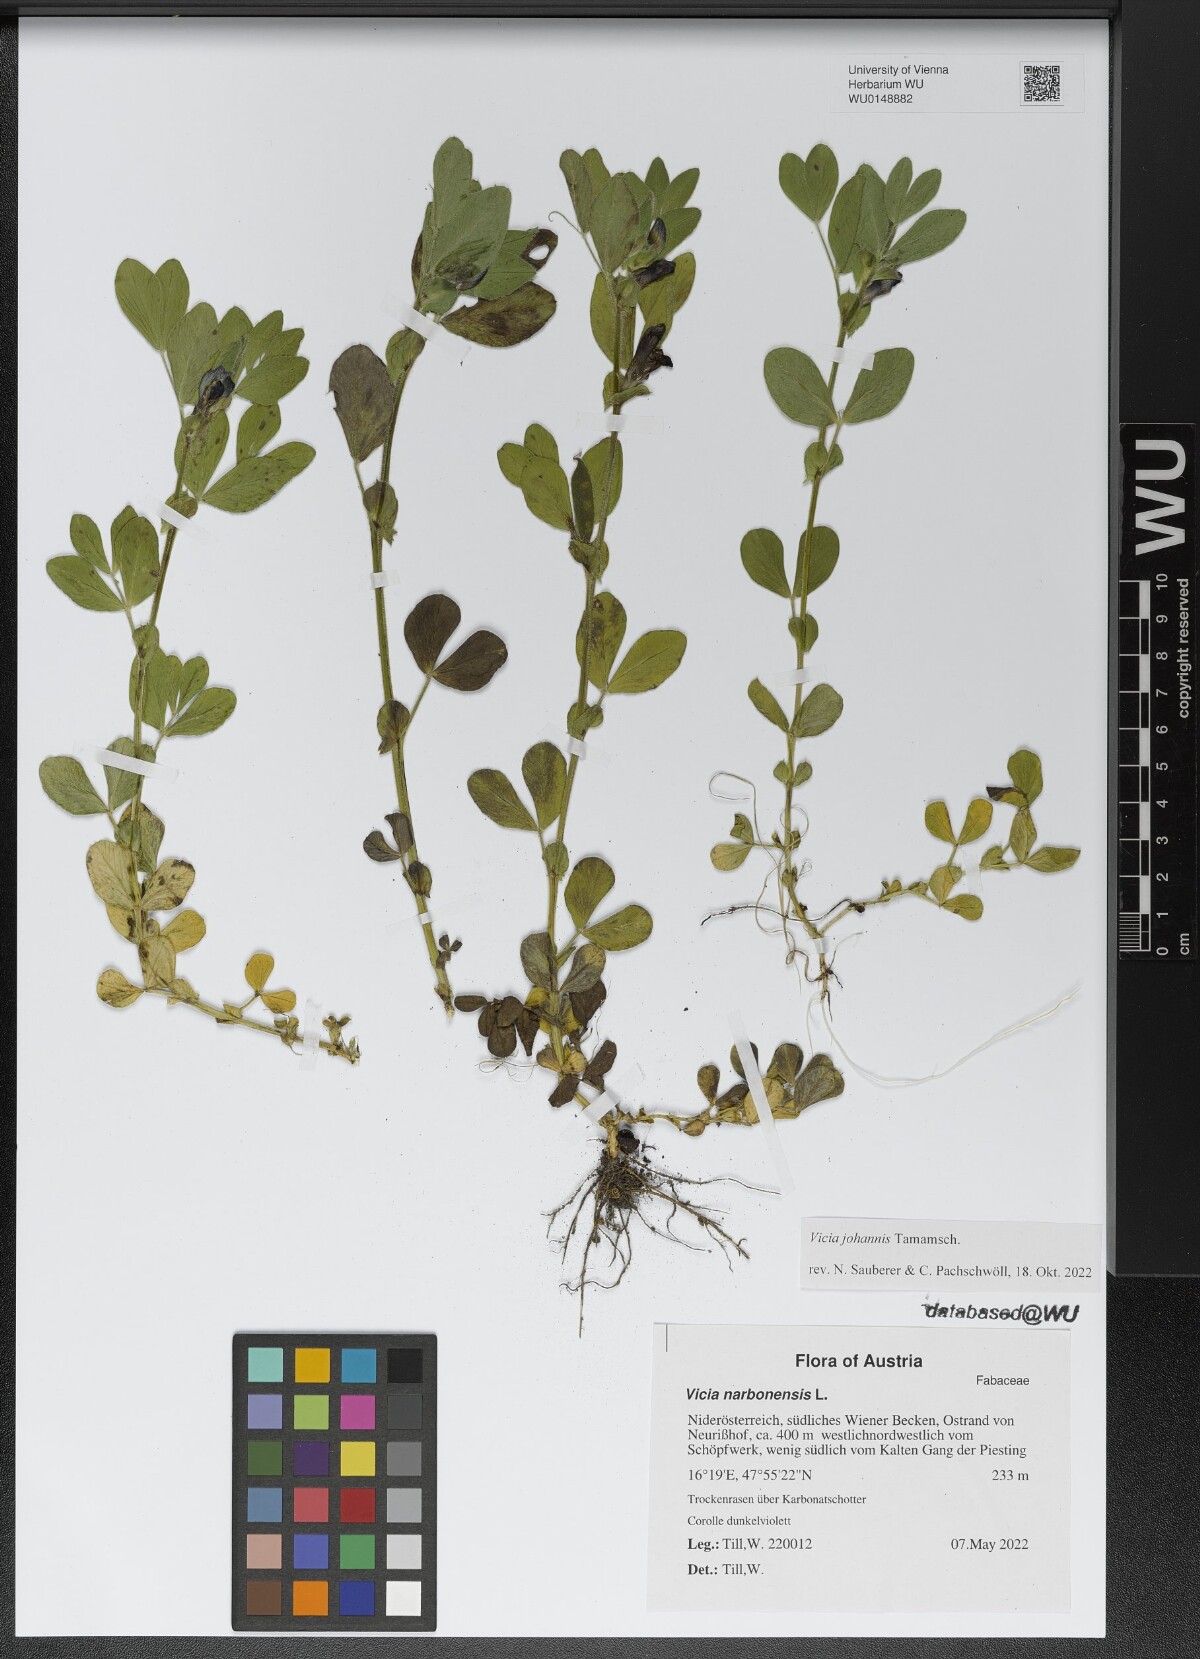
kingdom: Plantae
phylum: Tracheophyta
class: Magnoliopsida
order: Fabales
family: Fabaceae
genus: Vicia
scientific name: Vicia johannis
